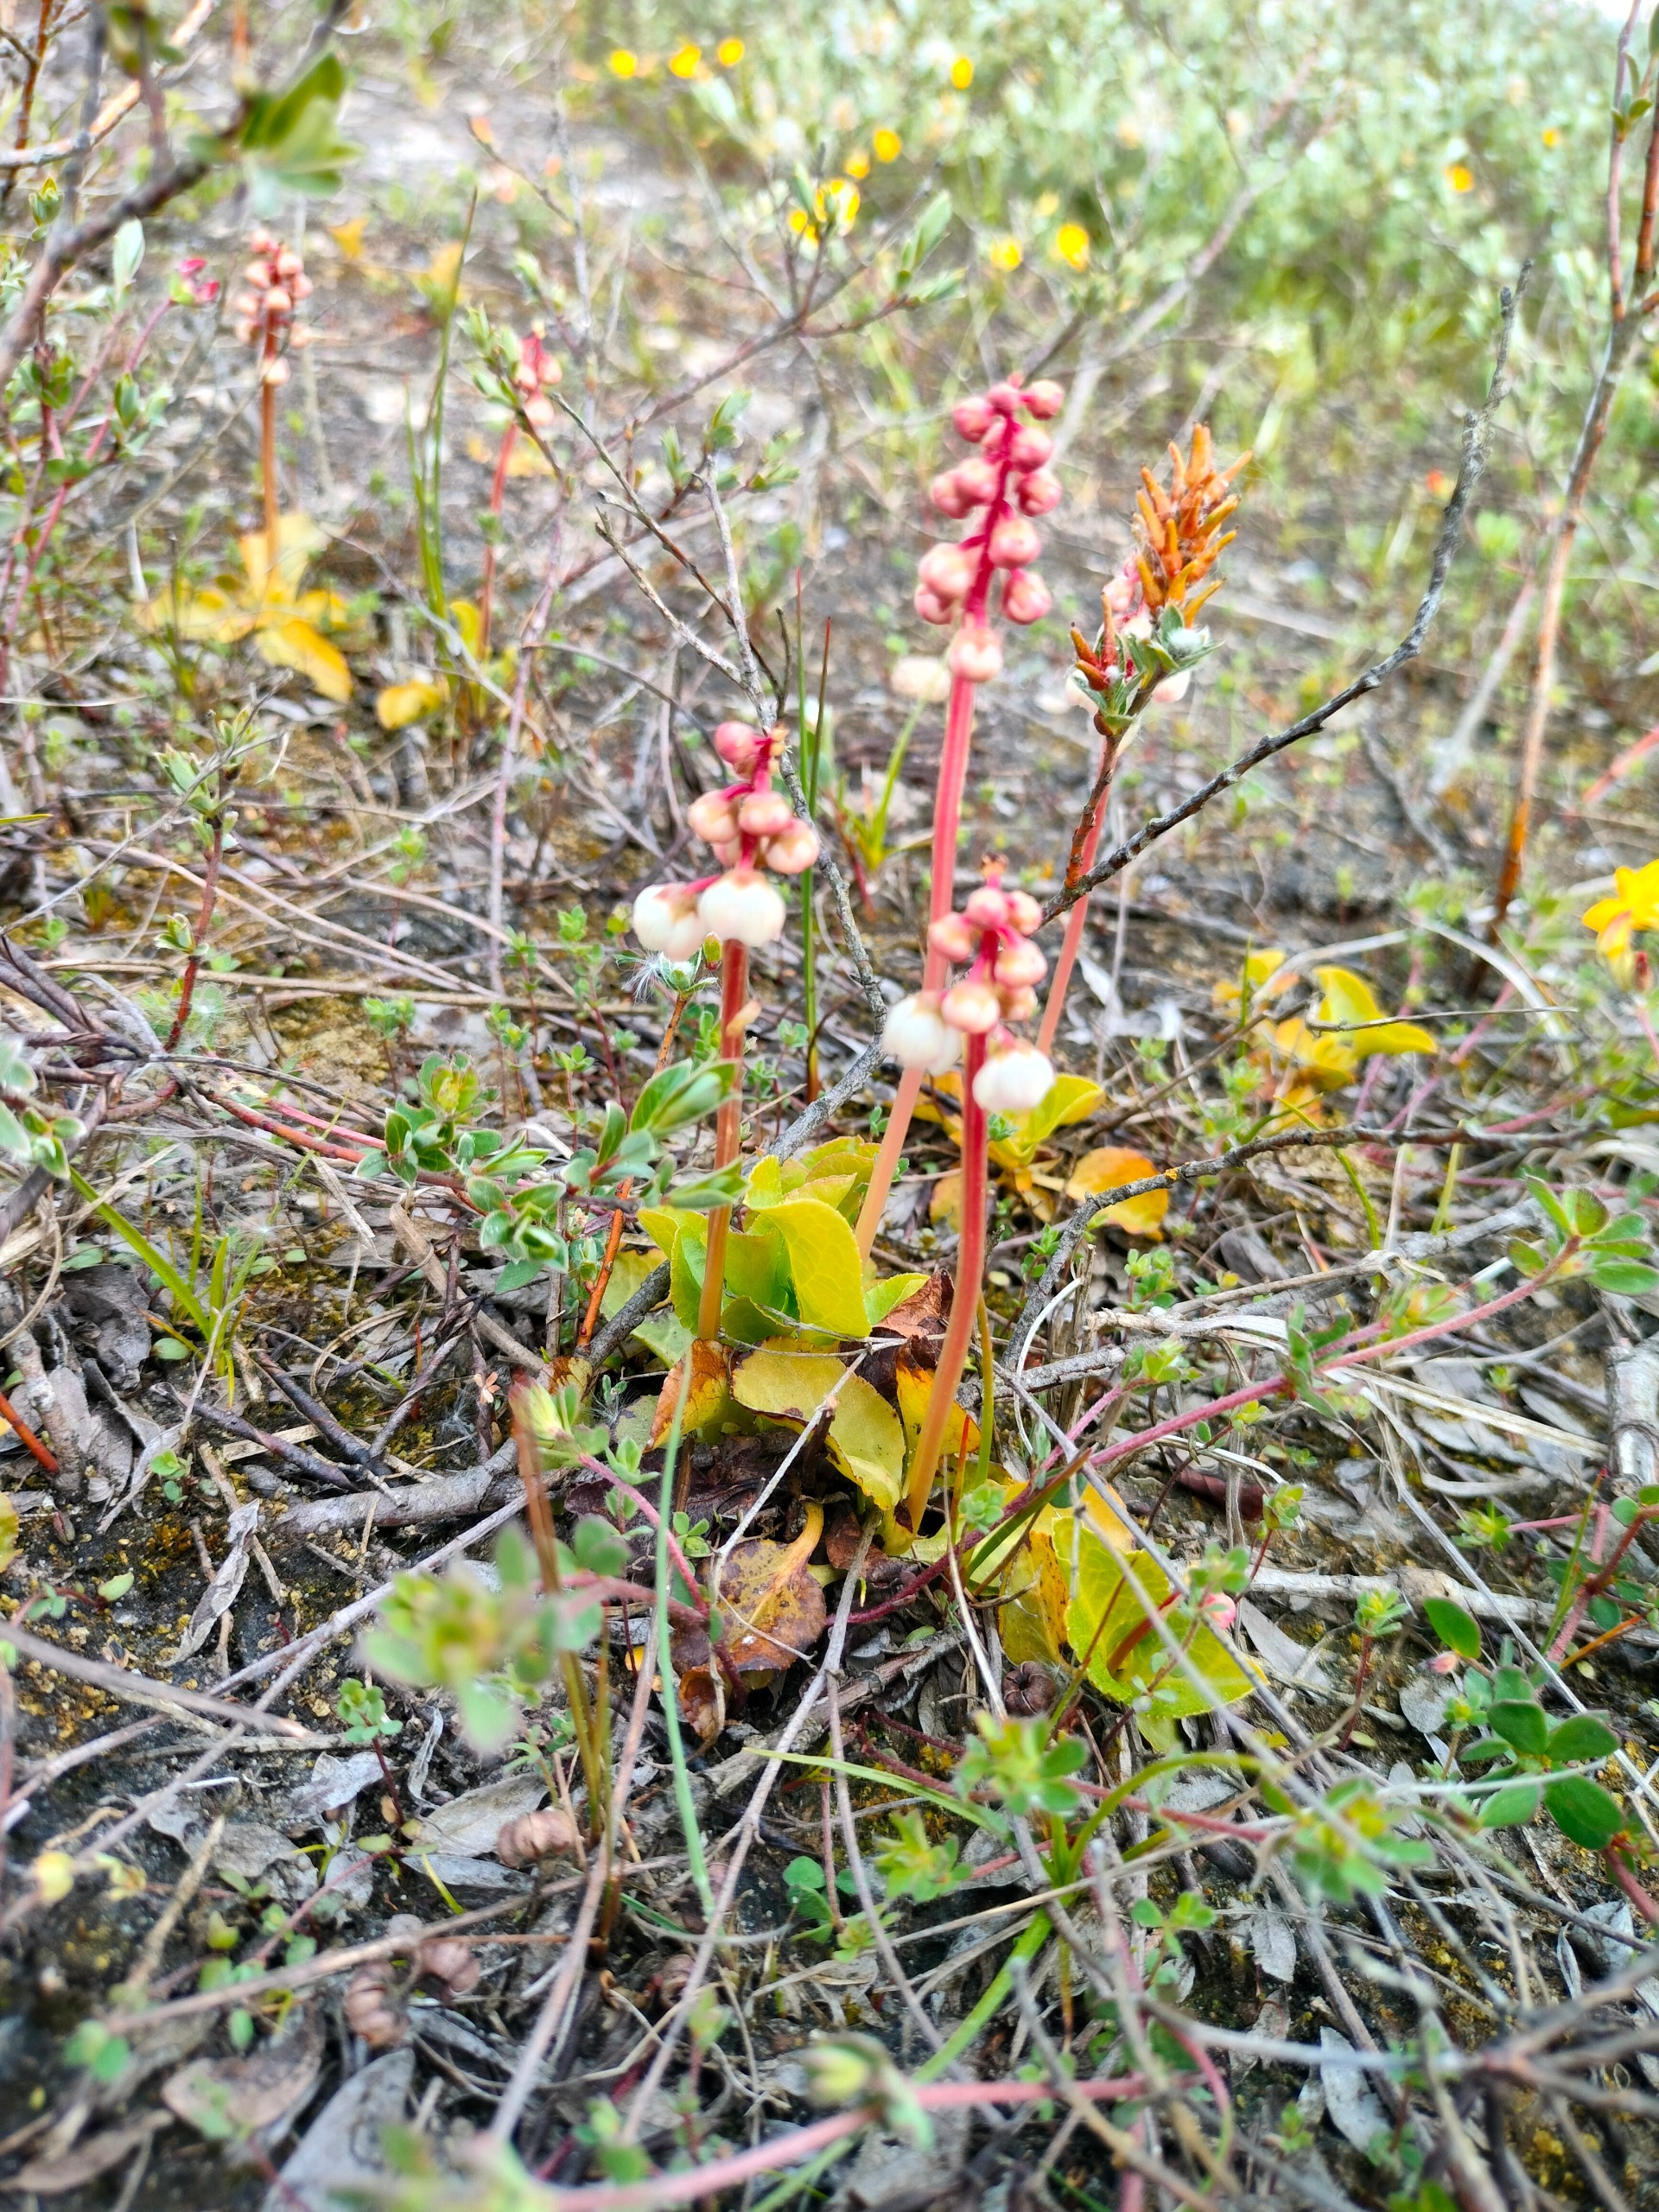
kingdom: Plantae
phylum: Tracheophyta
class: Magnoliopsida
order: Ericales
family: Ericaceae
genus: Pyrola
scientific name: Pyrola minor
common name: Liden vintergrøn
